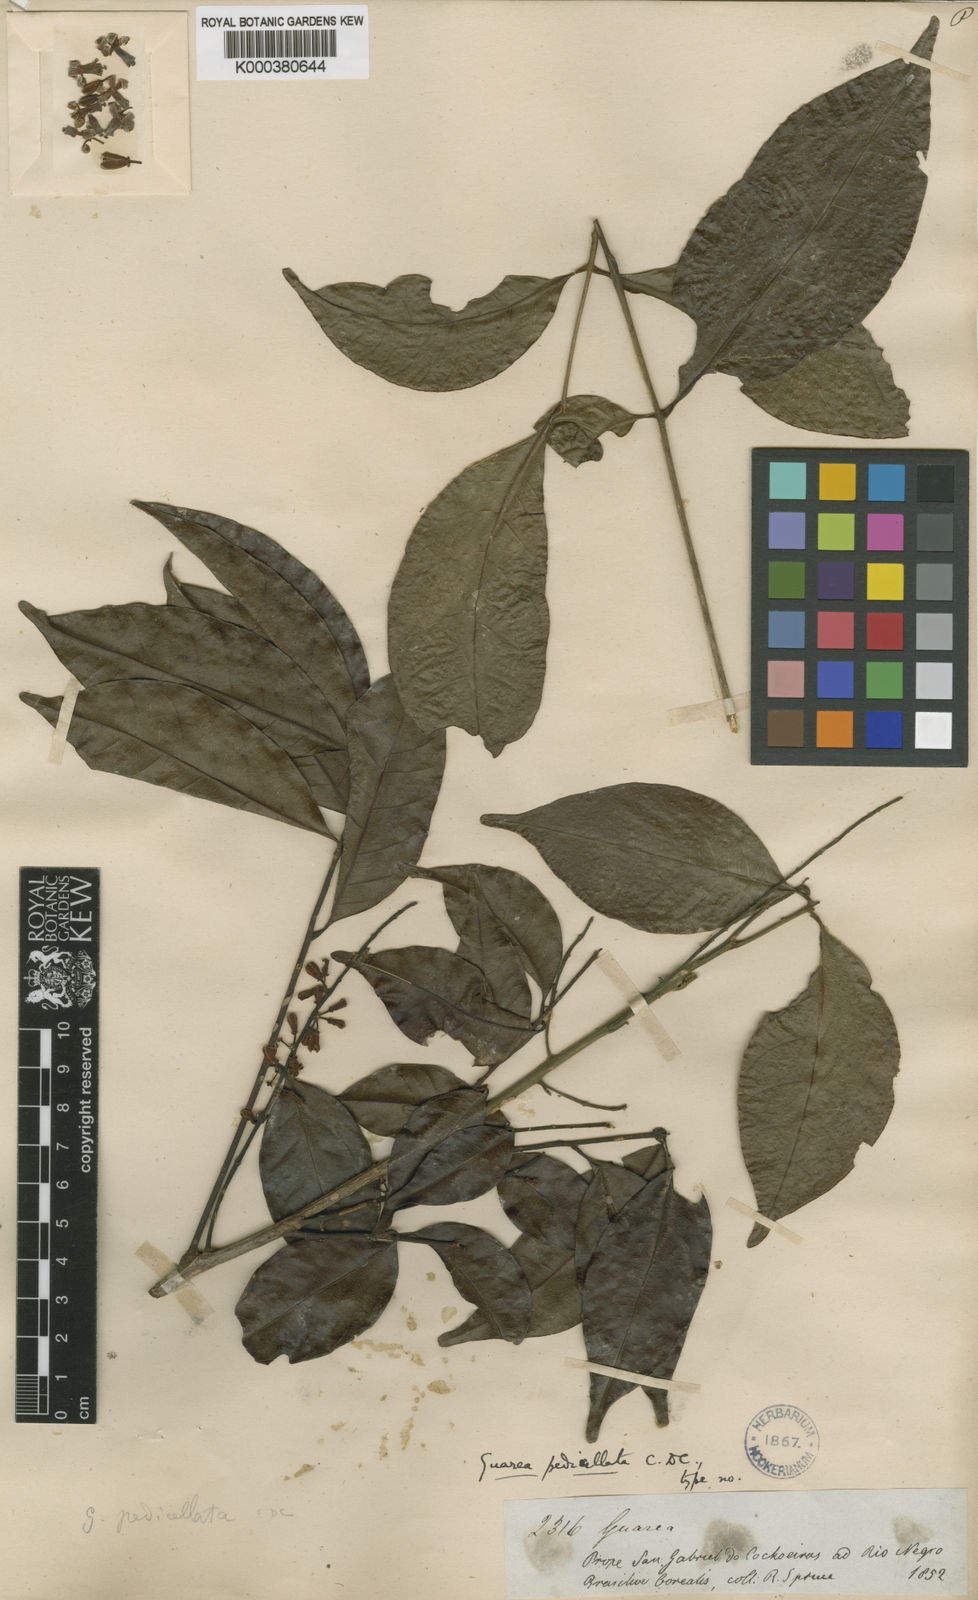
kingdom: Plantae
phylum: Tracheophyta
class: Magnoliopsida
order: Sapindales
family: Meliaceae
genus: Guarea
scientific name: Guarea silvatica
